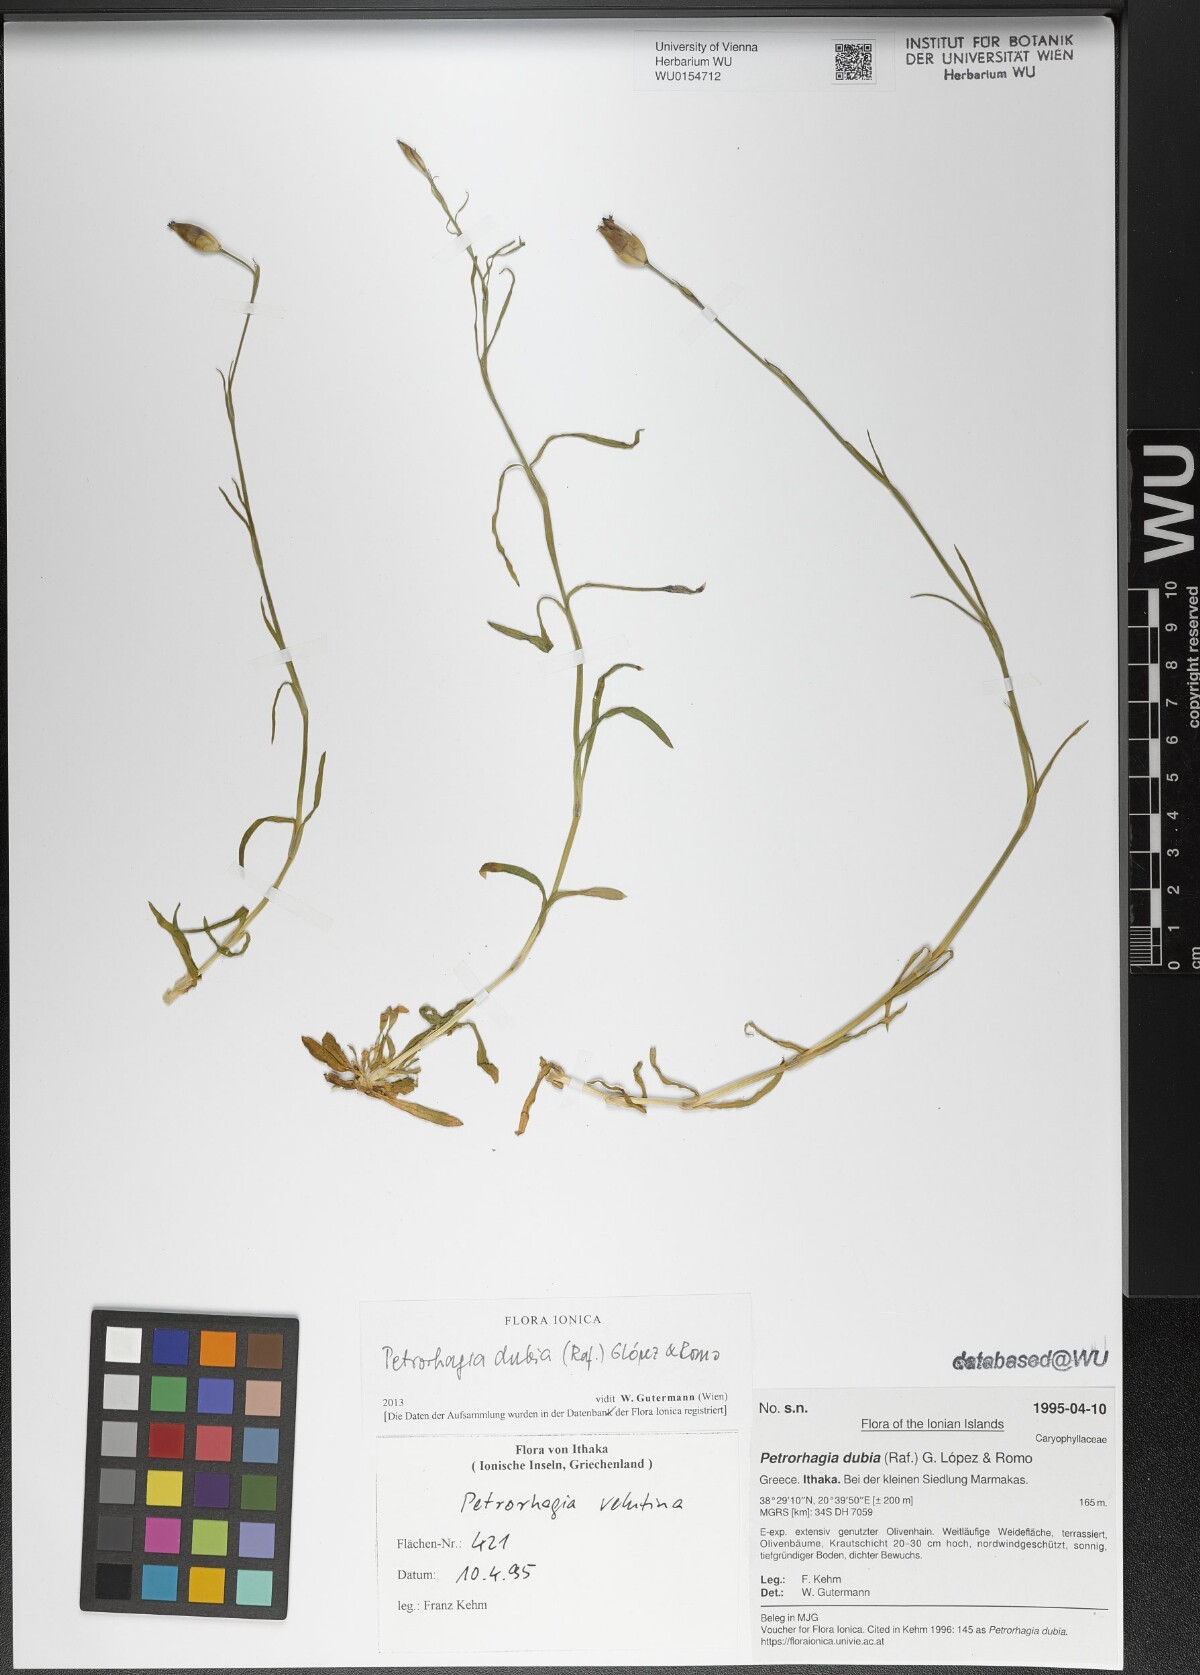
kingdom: Plantae
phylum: Tracheophyta
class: Magnoliopsida
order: Caryophyllales
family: Caryophyllaceae
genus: Petrorhagia
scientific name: Petrorhagia dubia
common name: Hairypink
